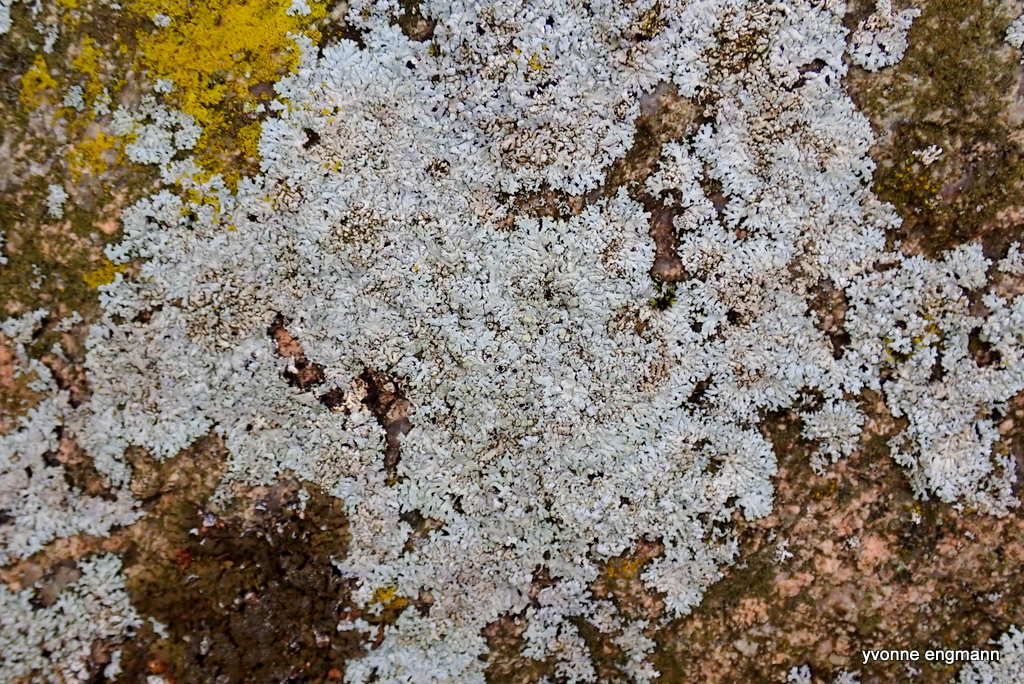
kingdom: Fungi
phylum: Ascomycota
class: Lecanoromycetes
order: Caliciales
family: Physciaceae
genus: Physcia
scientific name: Physcia caesia
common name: blågrå rosetlav
